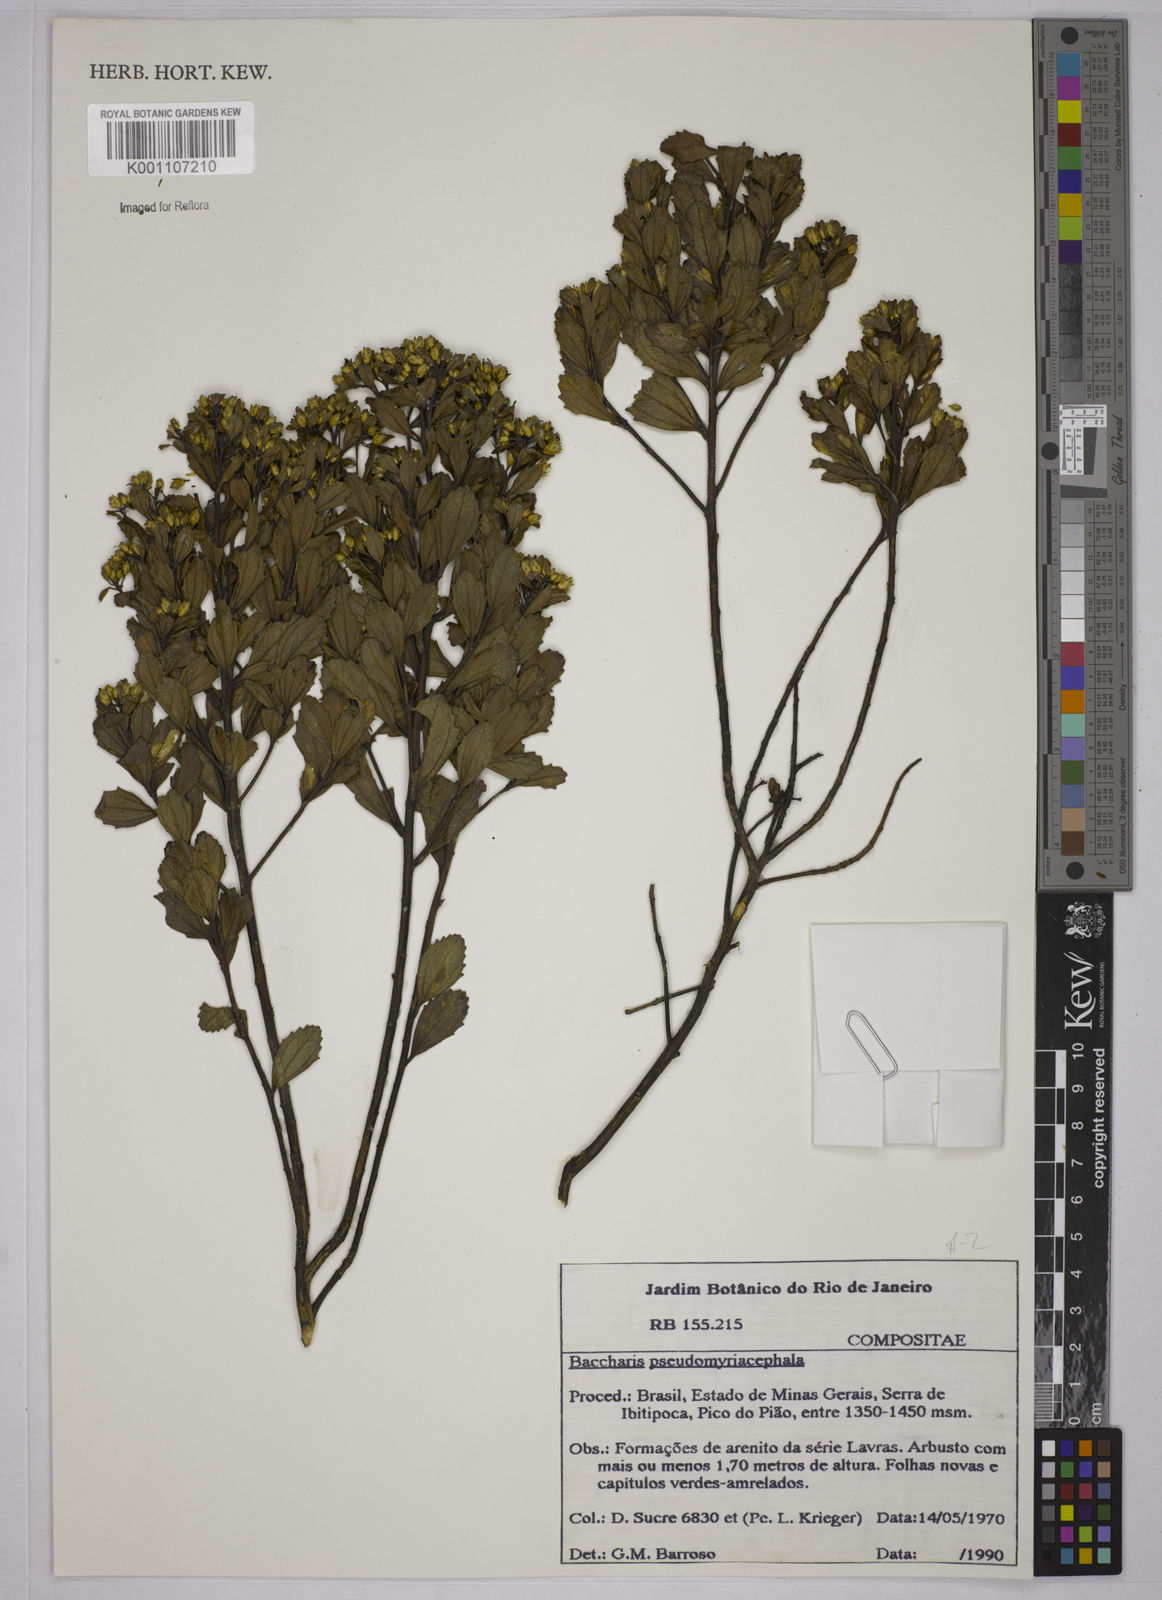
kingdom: Plantae
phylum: Tracheophyta
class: Magnoliopsida
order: Asterales
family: Asteraceae
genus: Baccharis
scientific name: Baccharis pseudomyriocephala
